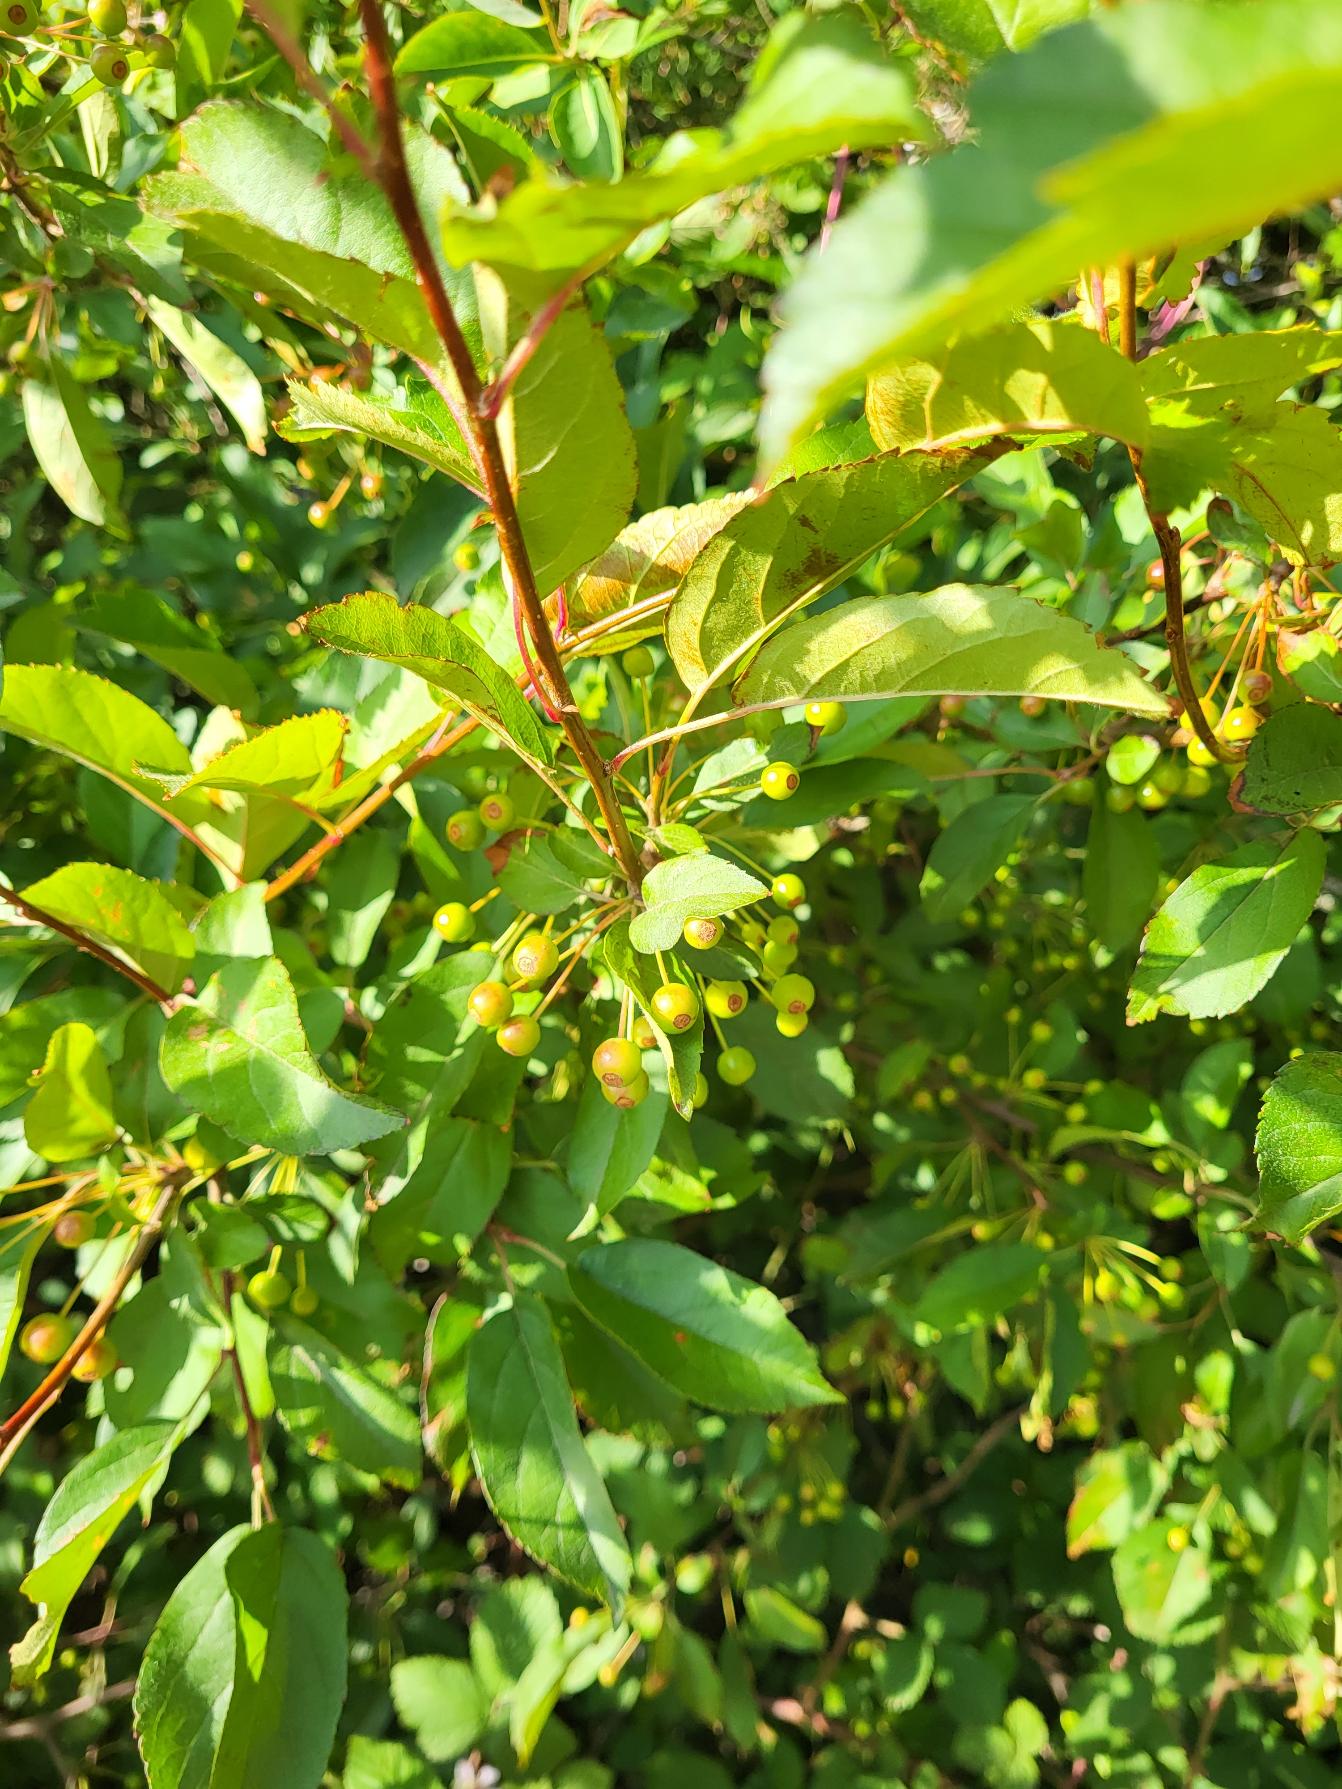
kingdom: Plantae
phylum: Tracheophyta
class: Magnoliopsida
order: Rosales
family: Rosaceae
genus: Malus
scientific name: Malus
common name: Æbleslægten
